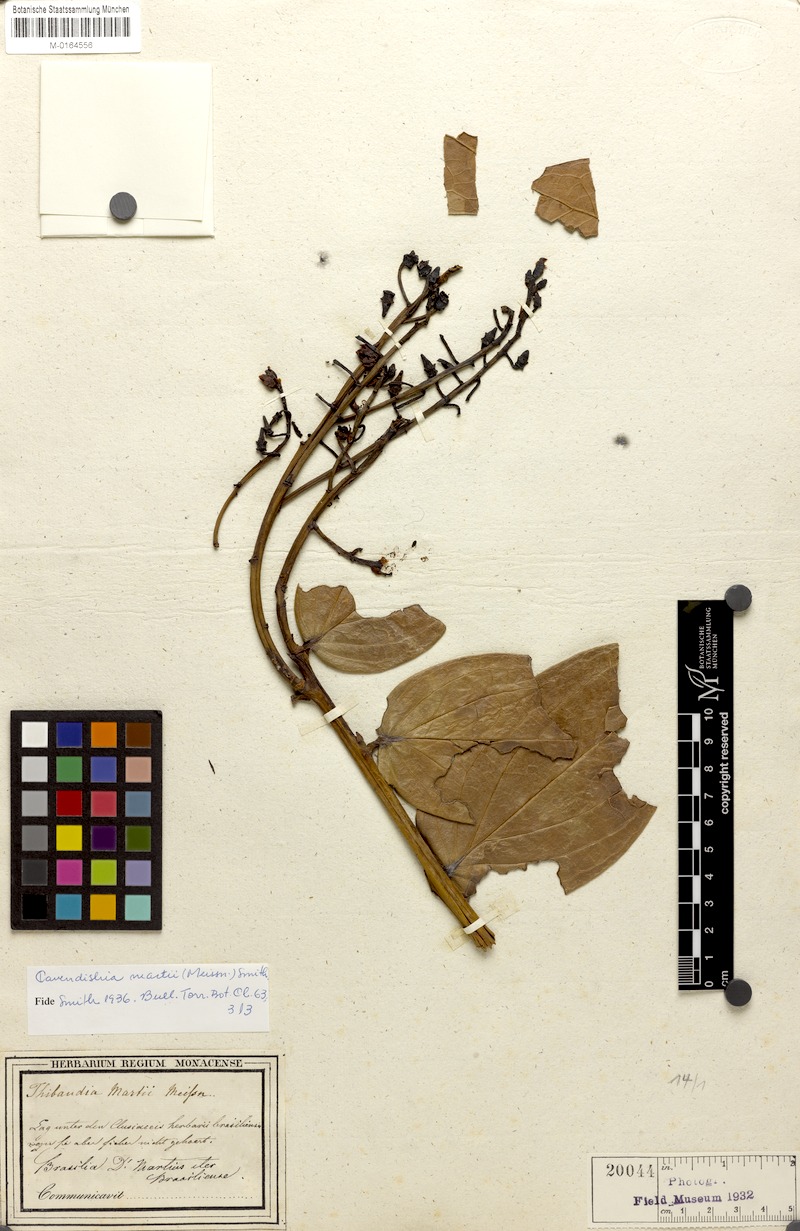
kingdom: Plantae
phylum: Tracheophyta
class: Magnoliopsida
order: Ericales
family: Ericaceae
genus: Cavendishia
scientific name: Cavendishia martii
